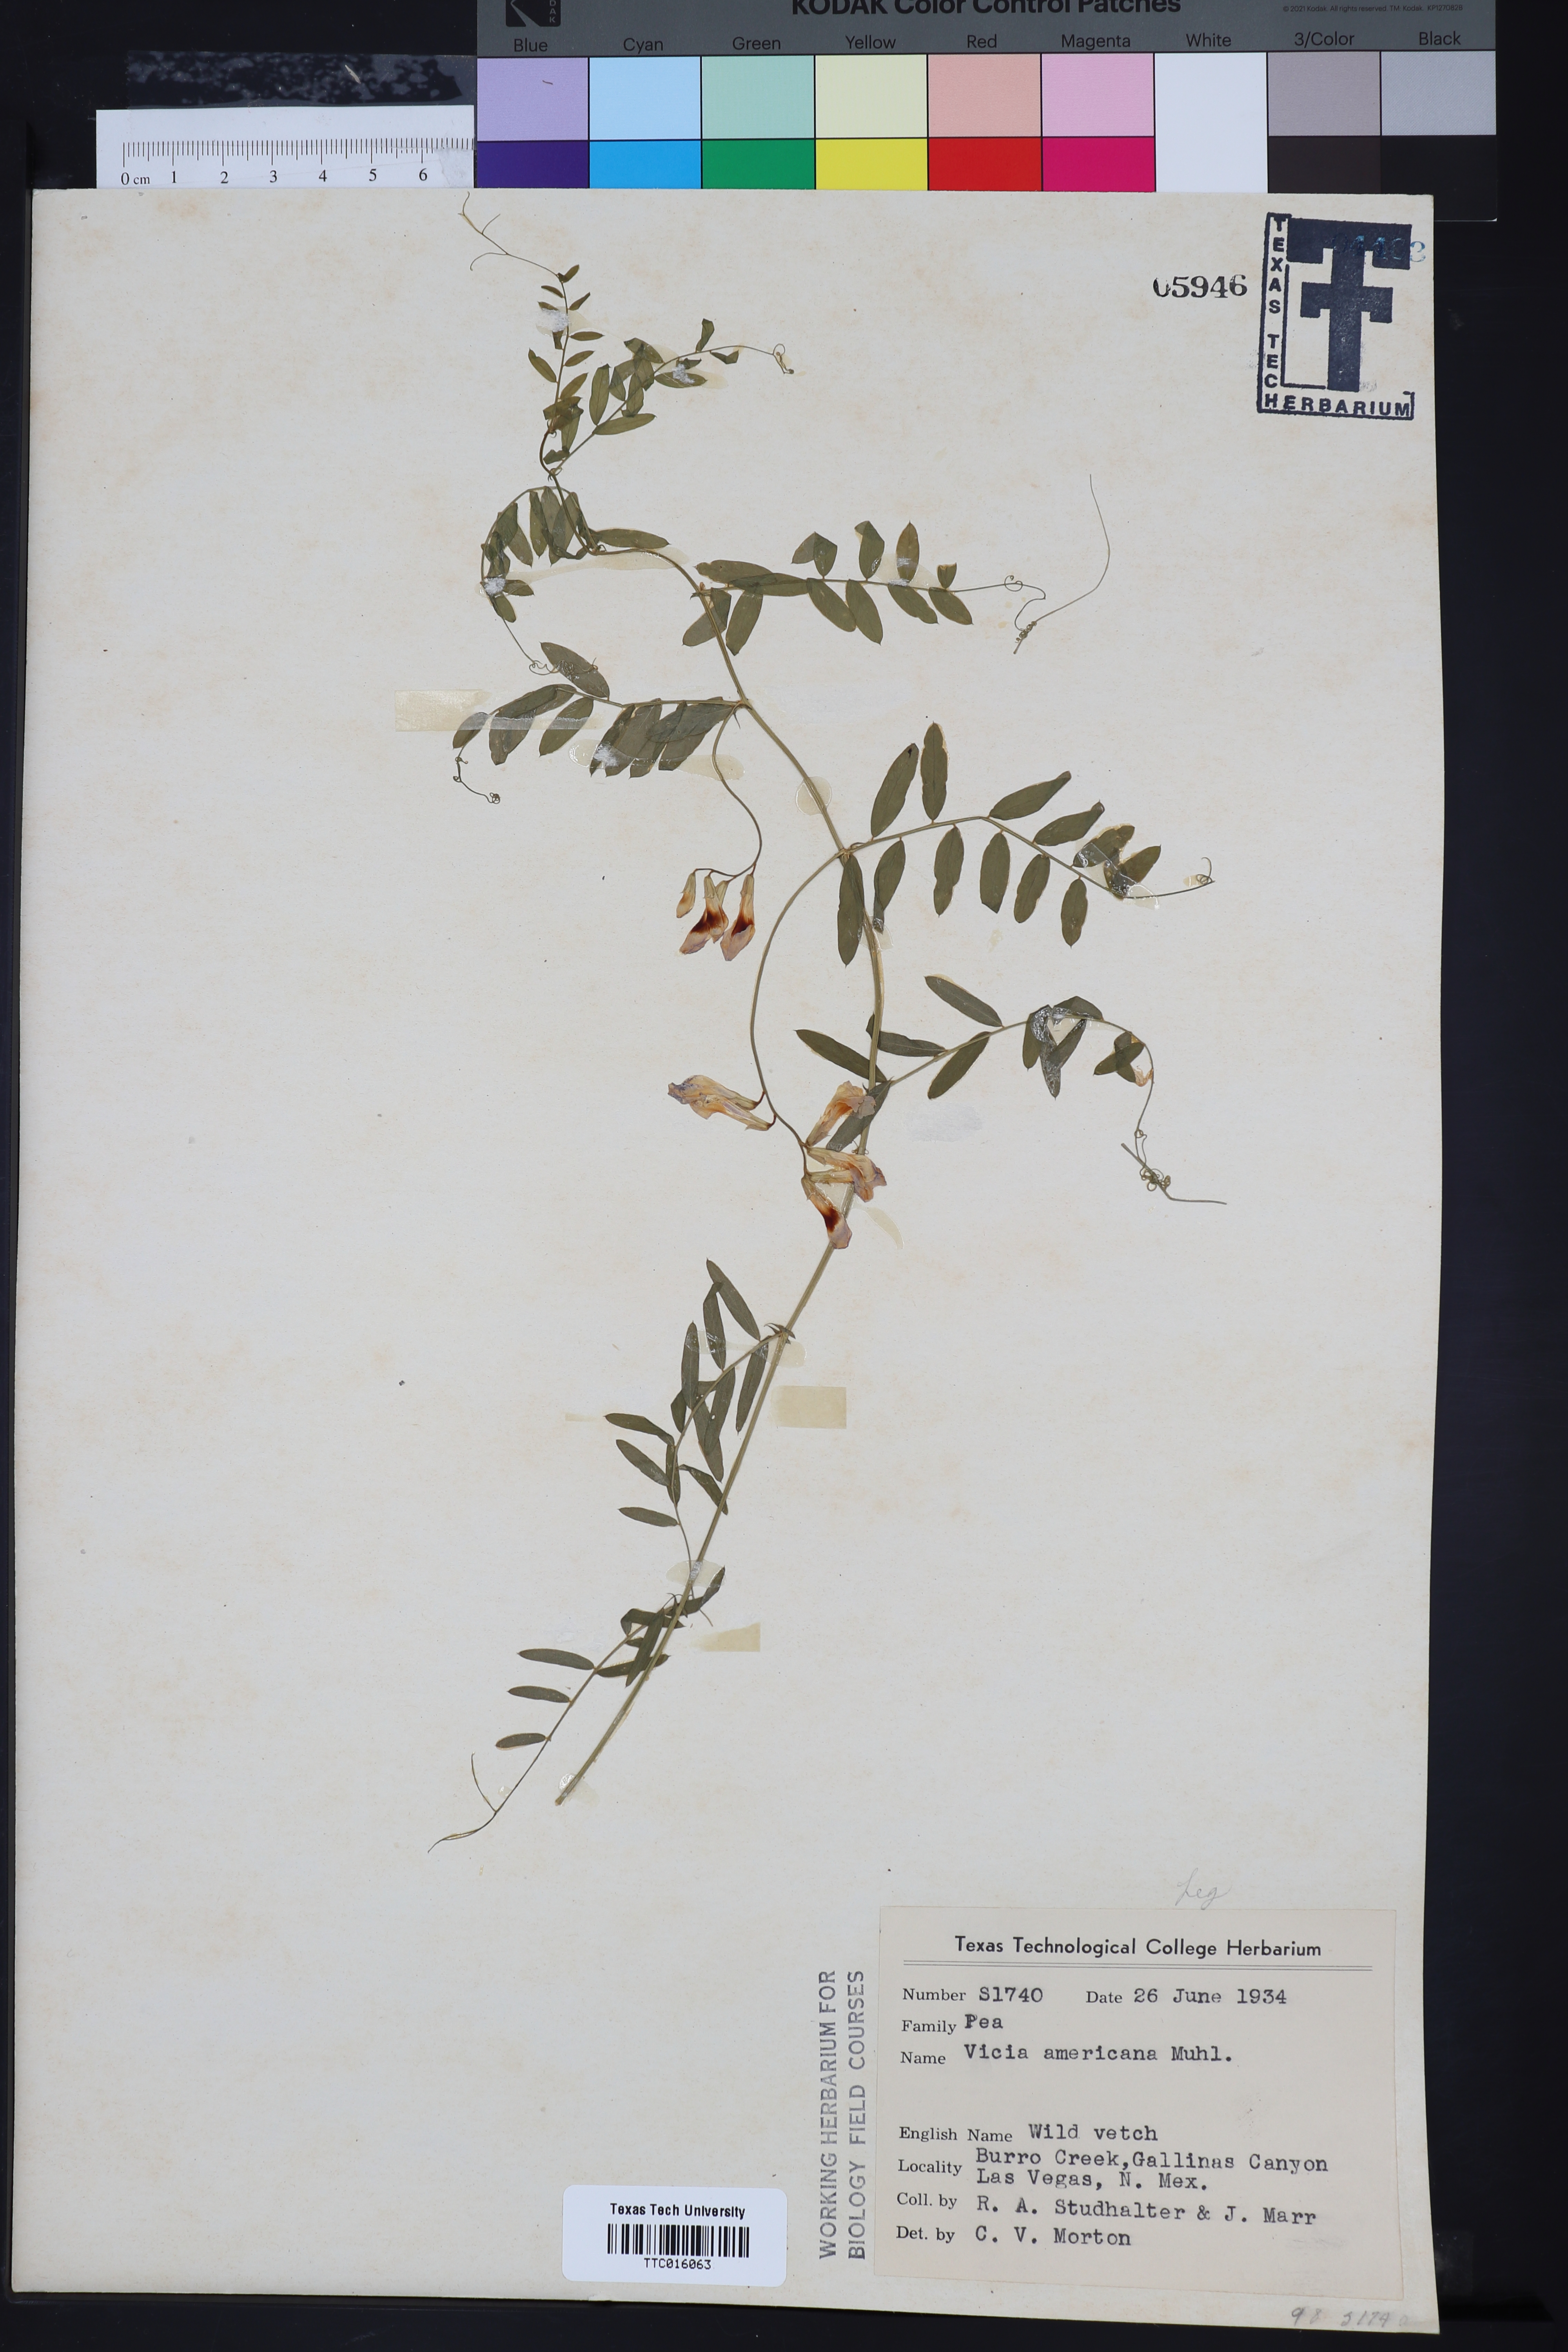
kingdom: Plantae
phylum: Tracheophyta
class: Magnoliopsida
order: Fabales
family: Fabaceae
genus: Vicia
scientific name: Vicia americana
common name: American vetch
